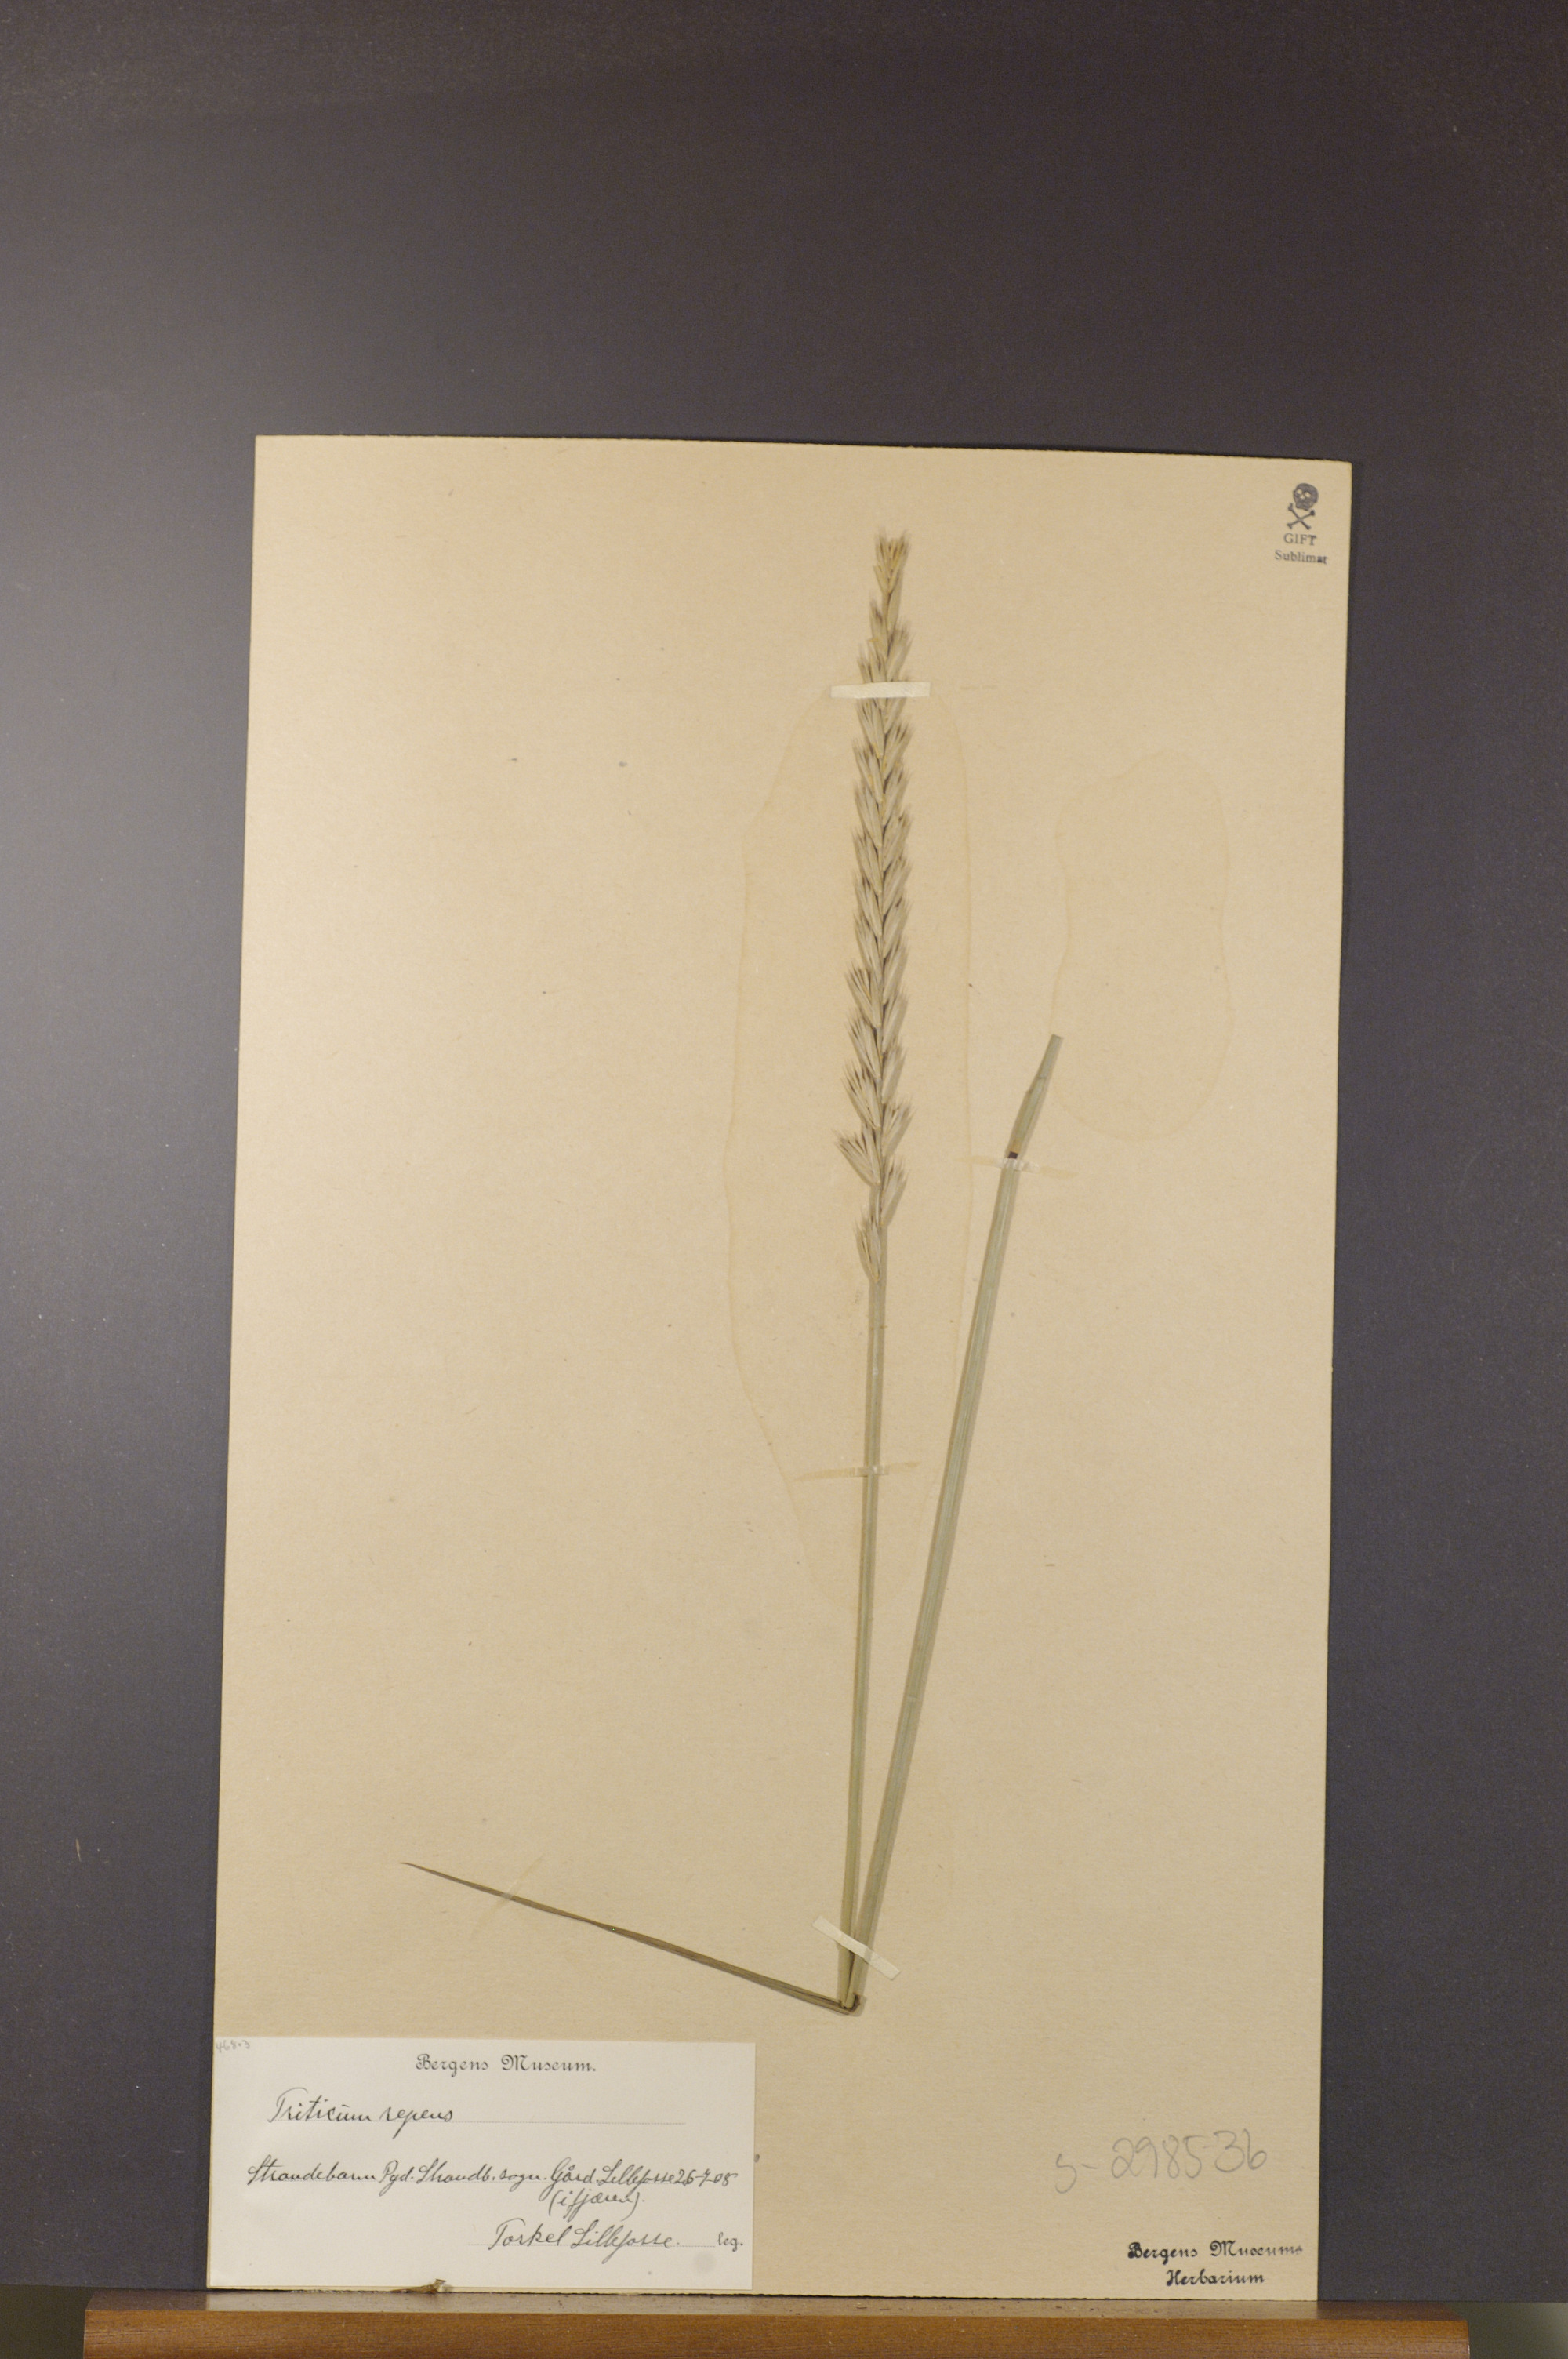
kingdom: Plantae
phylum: Tracheophyta
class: Liliopsida
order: Poales
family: Poaceae
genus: Elymus
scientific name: Elymus repens
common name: Quackgrass
